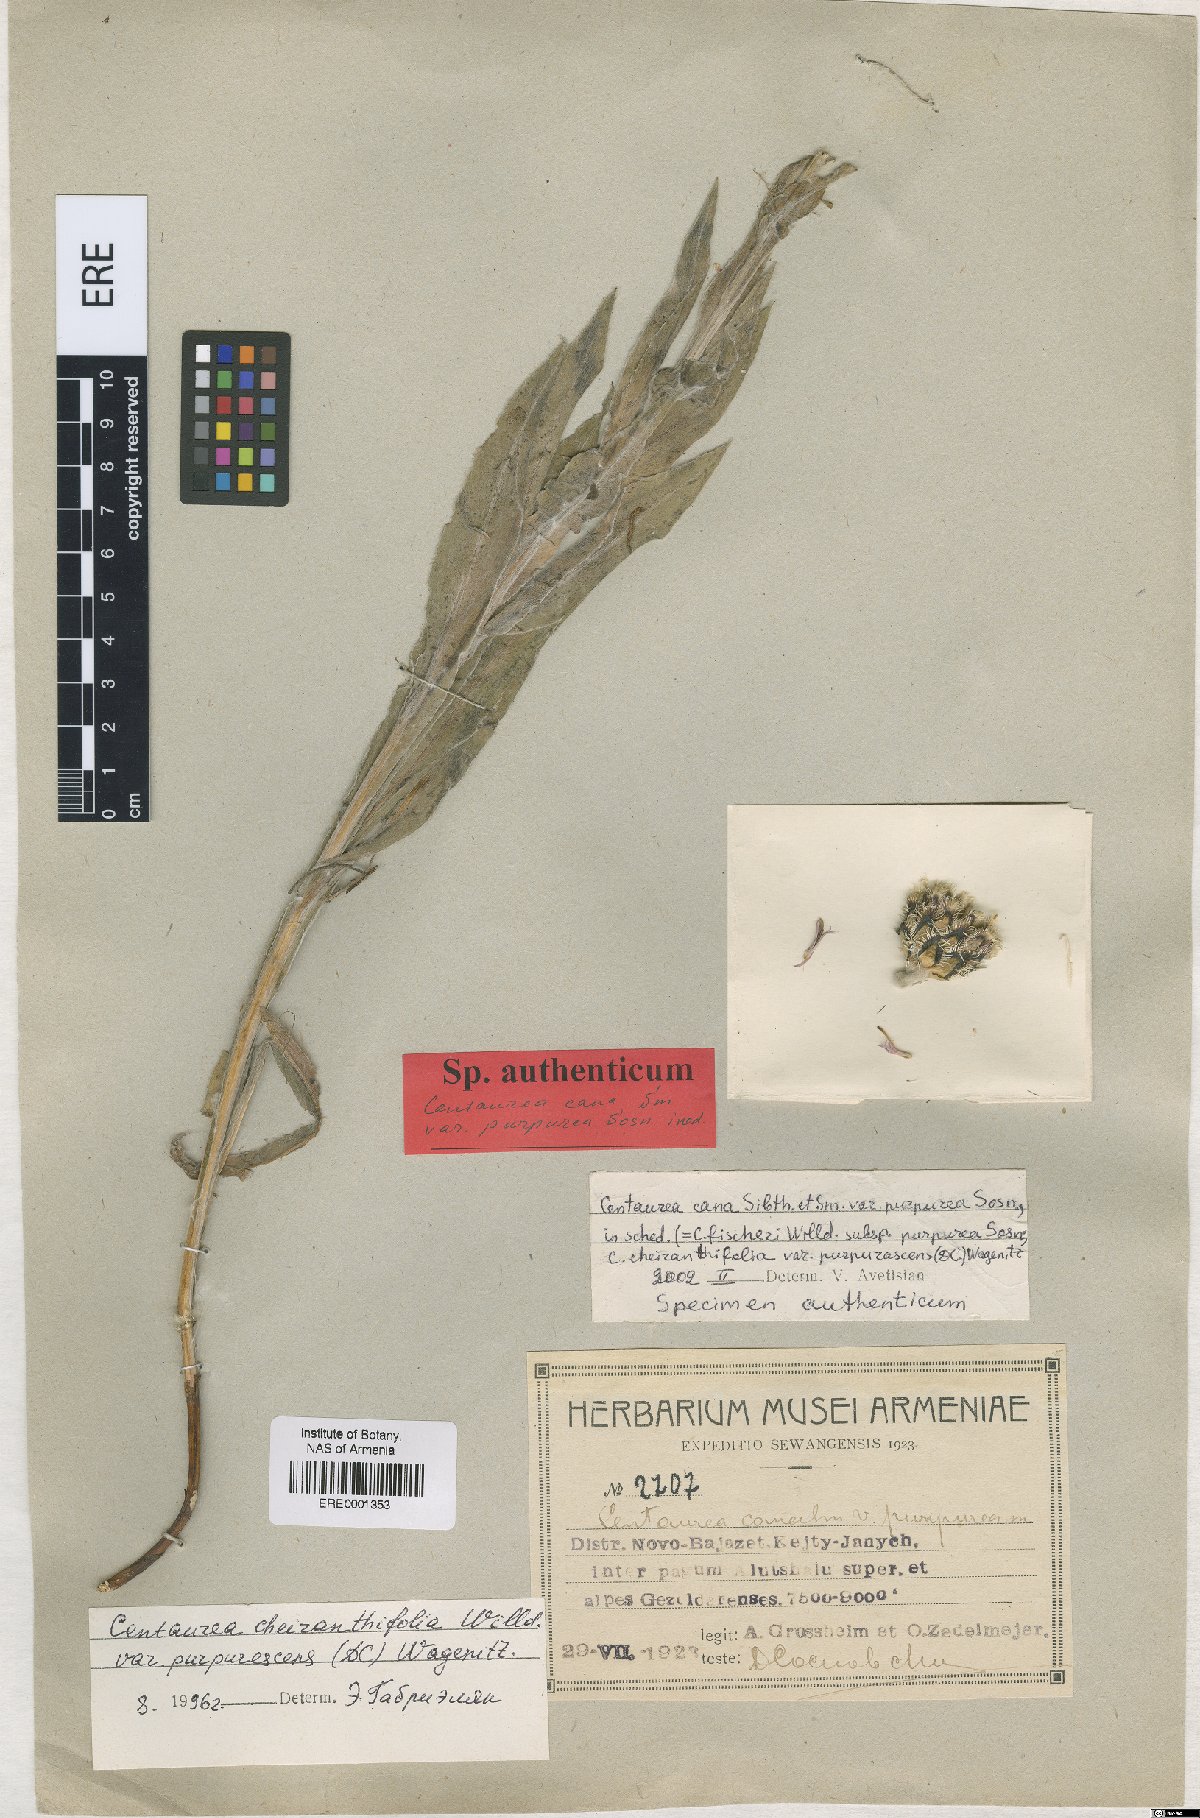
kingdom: Plantae
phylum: Tracheophyta
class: Magnoliopsida
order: Asterales
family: Asteraceae
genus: Centaurea
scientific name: Centaurea triumfettii
